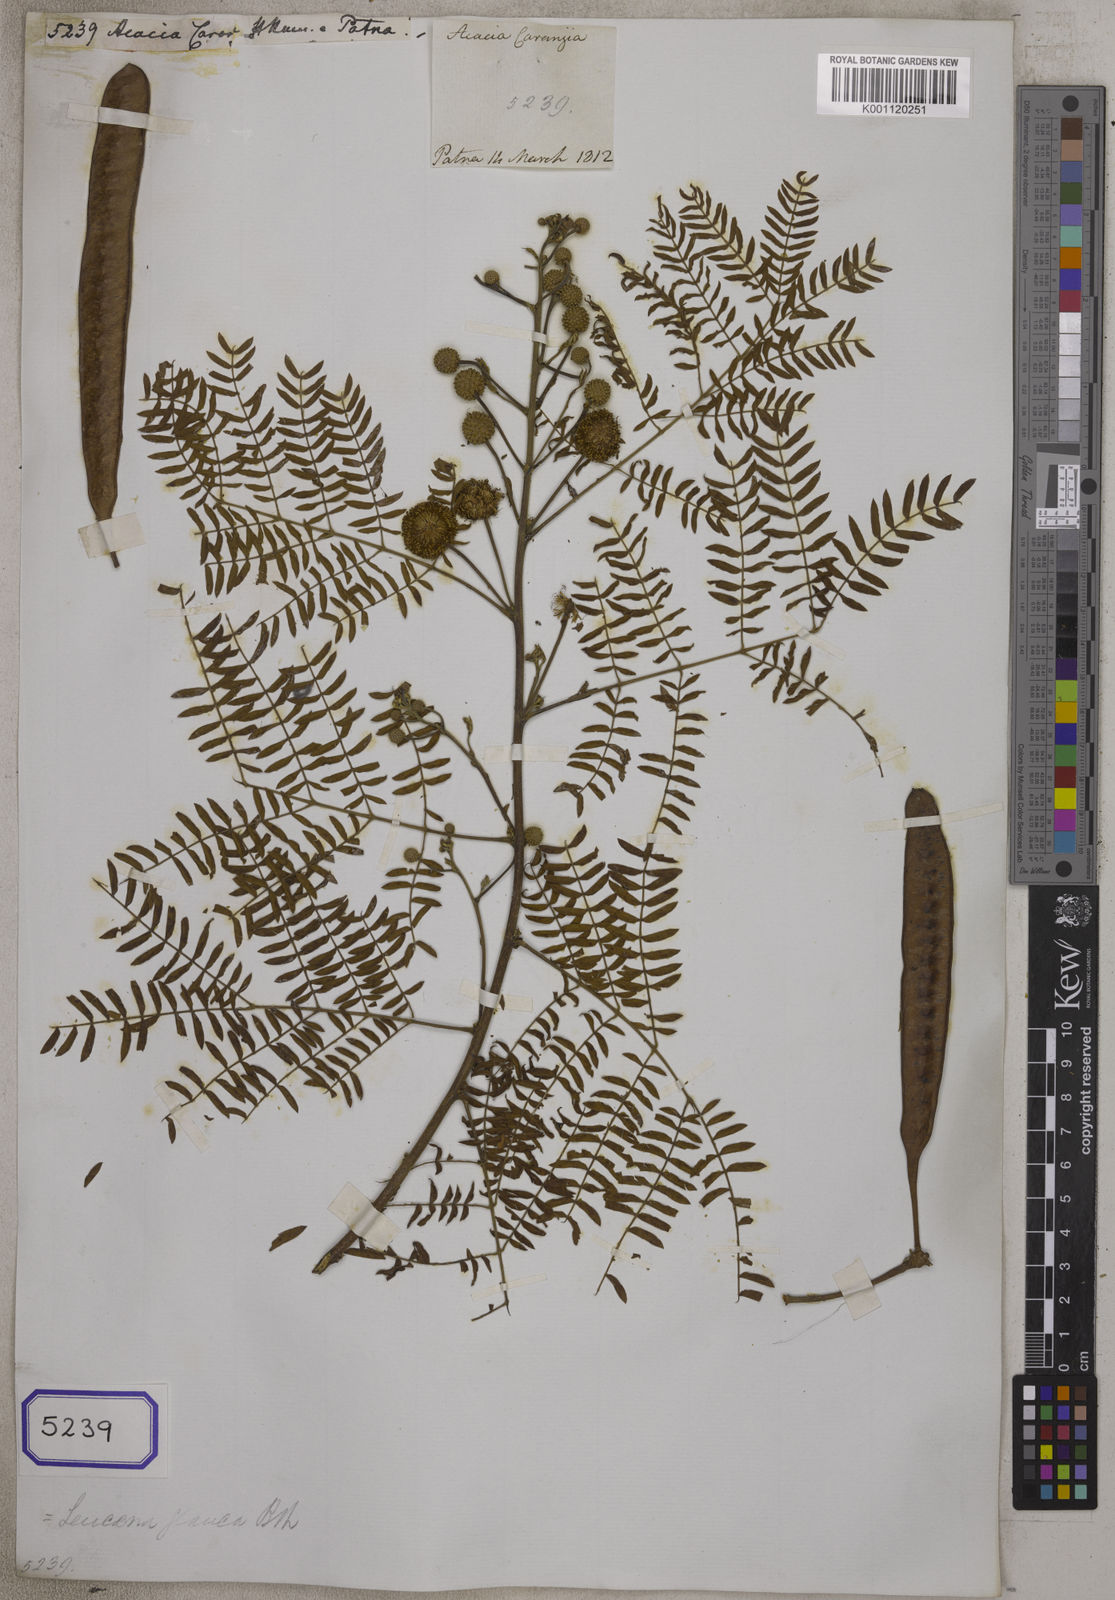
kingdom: Plantae
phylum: Tracheophyta
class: Magnoliopsida
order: Fabales
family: Fabaceae
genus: Acacia
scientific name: Acacia
